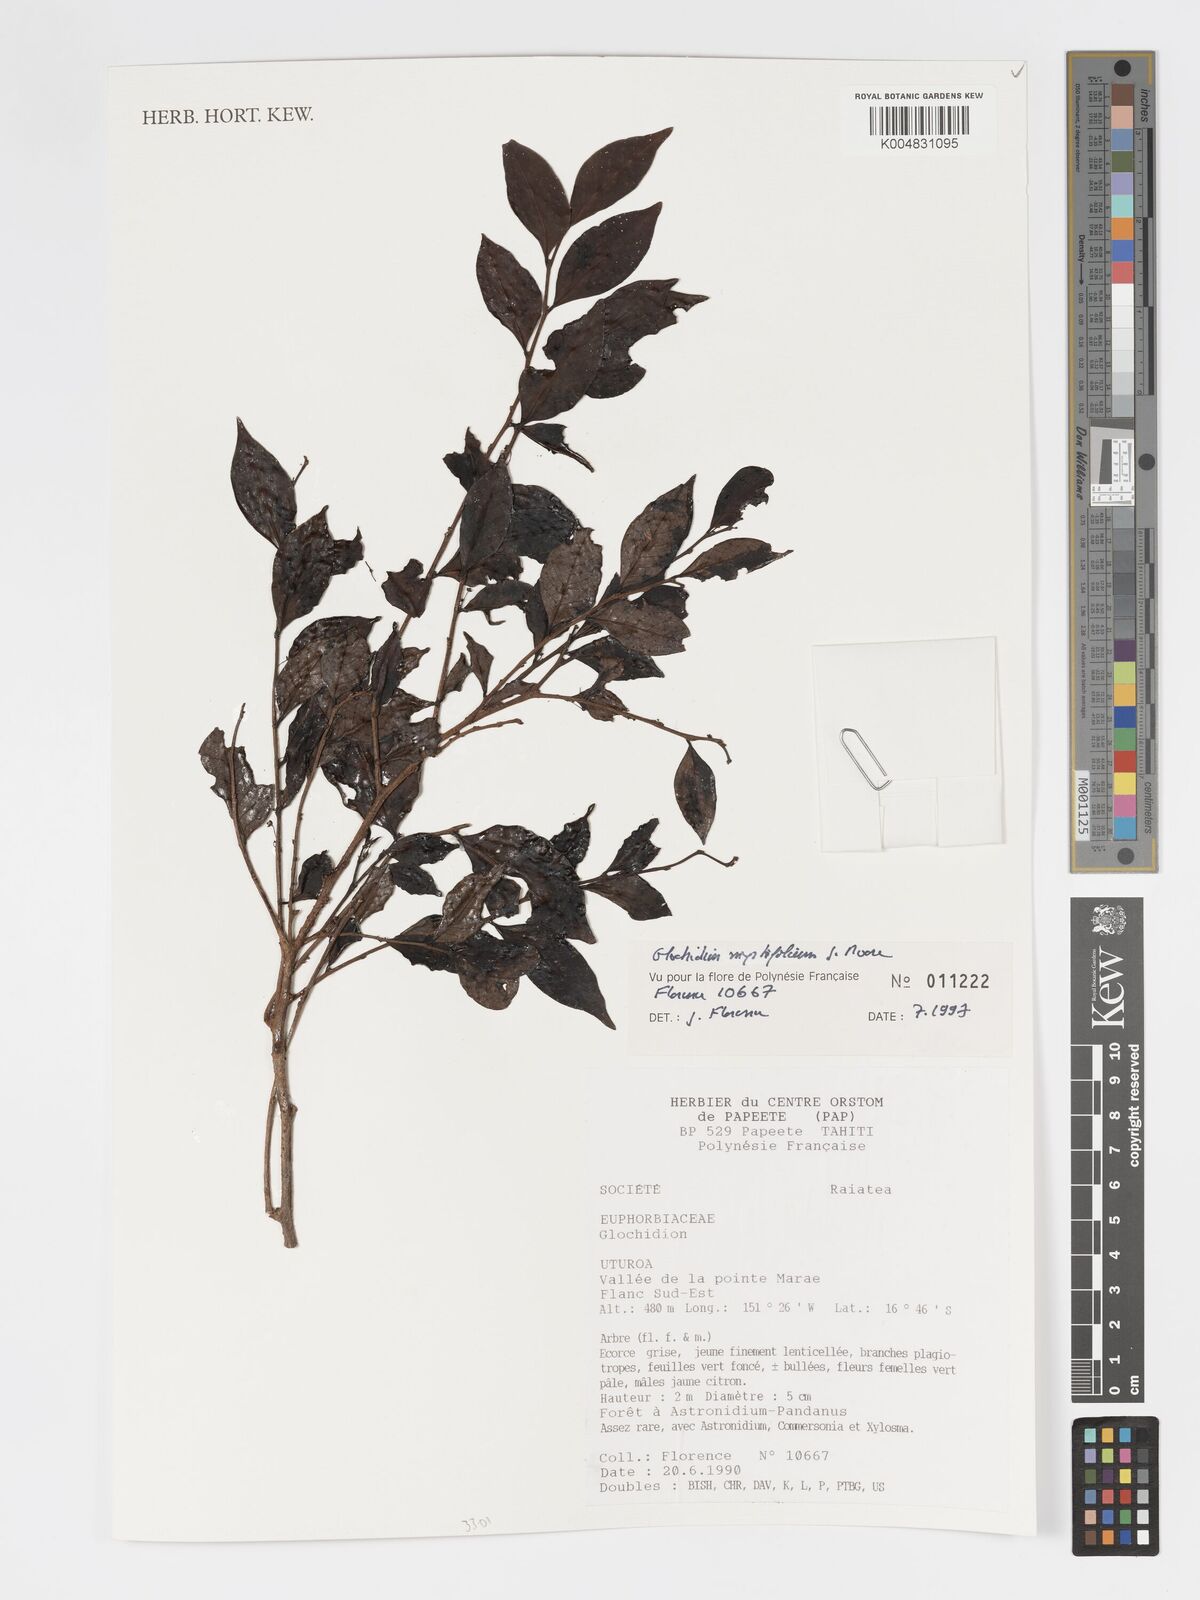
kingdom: Plantae
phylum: Tracheophyta
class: Magnoliopsida
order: Malpighiales
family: Phyllanthaceae
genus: Glochidion
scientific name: Glochidion myrtifolium
